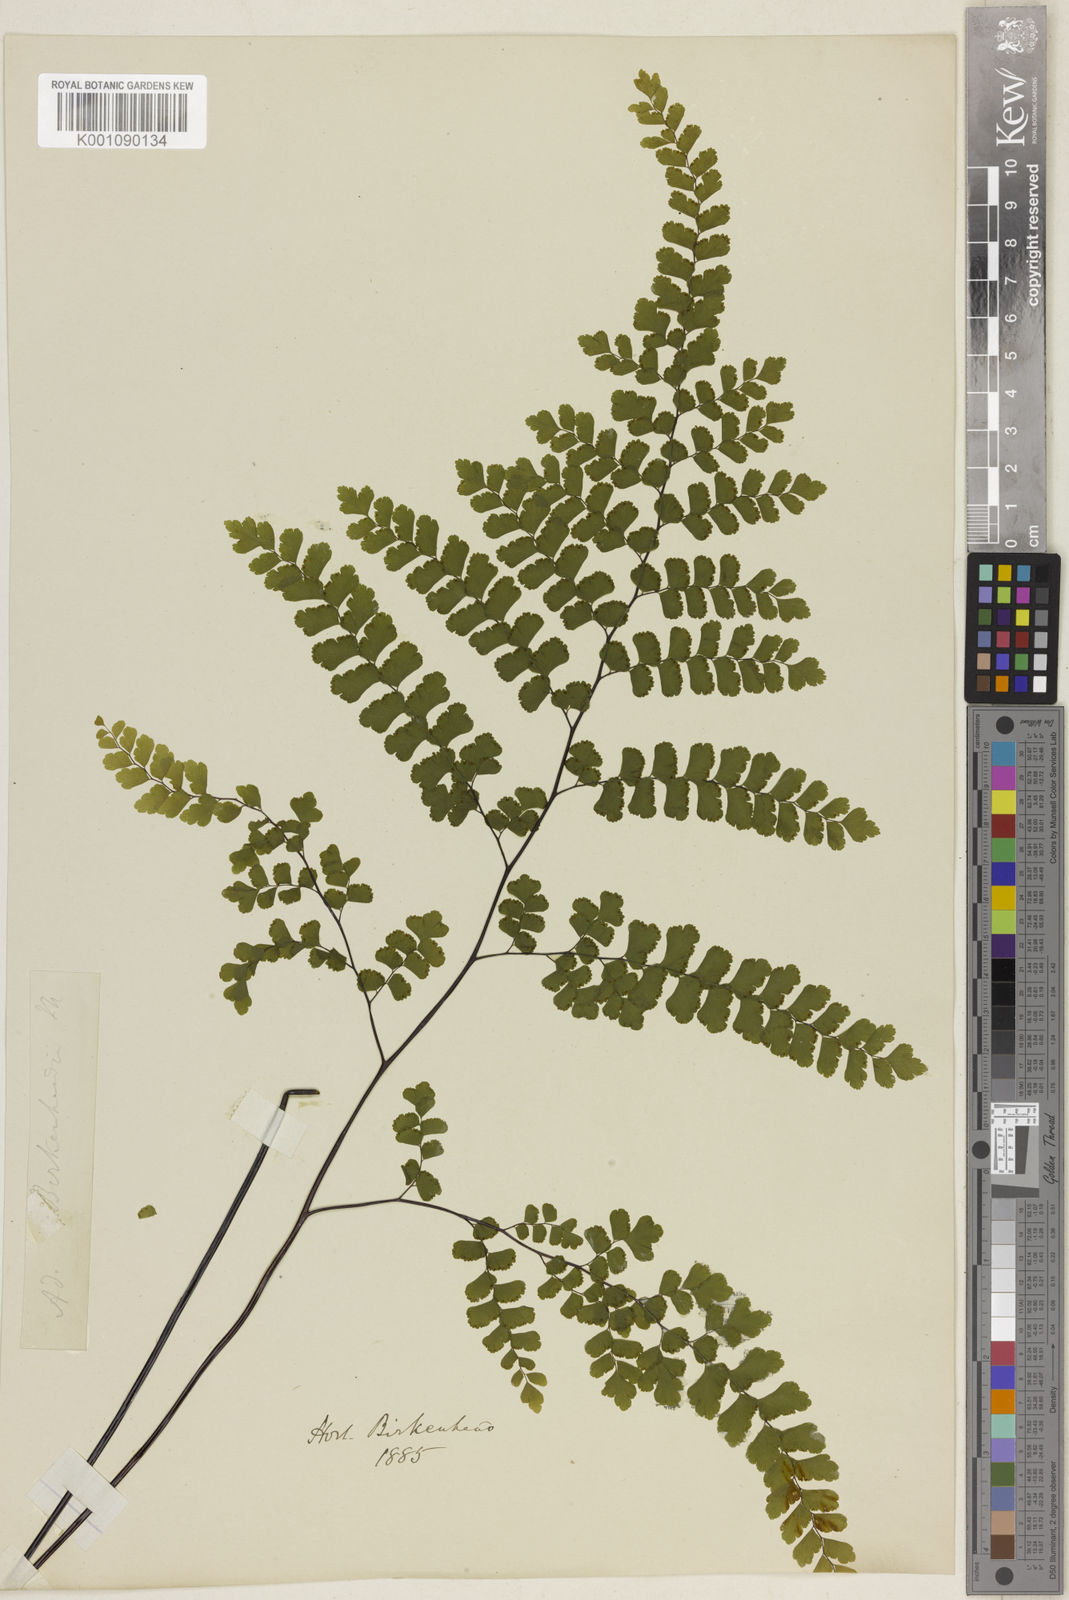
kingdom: Plantae
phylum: Tracheophyta
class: Polypodiopsida
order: Polypodiales
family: Pteridaceae
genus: Adiantum
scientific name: Adiantum concinnum
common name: Brittle maidenhair fern
